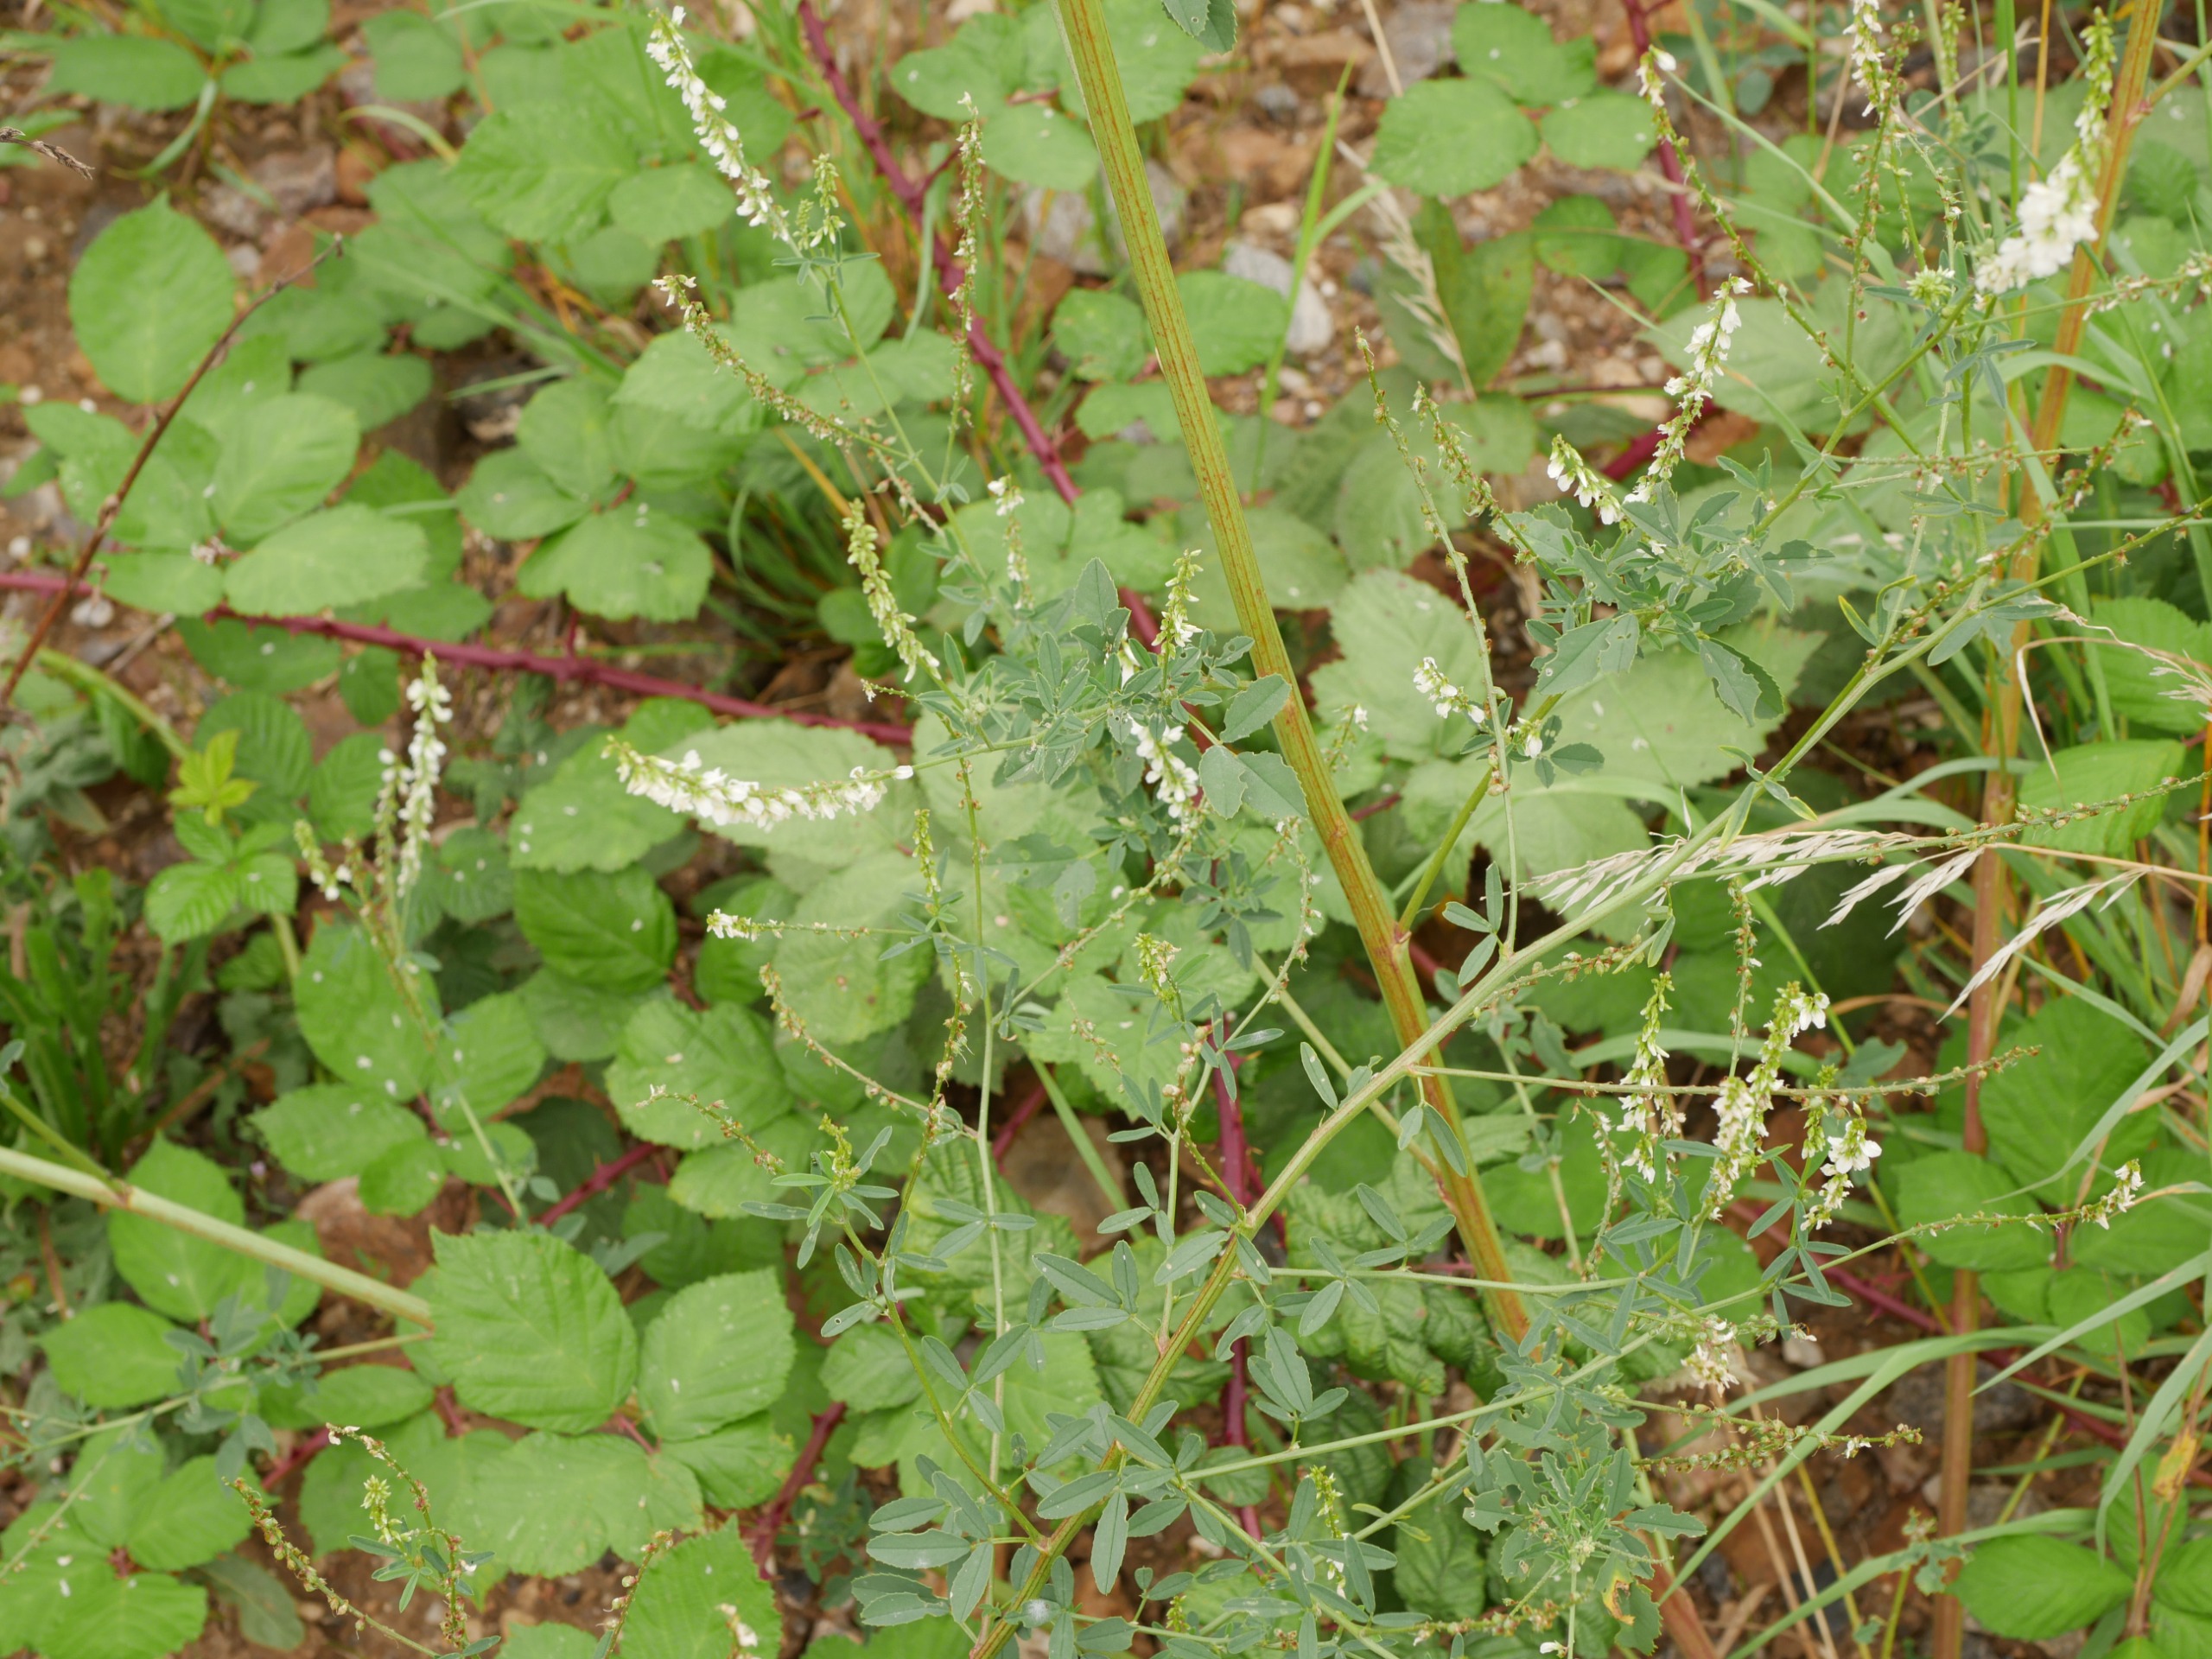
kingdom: Plantae
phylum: Tracheophyta
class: Magnoliopsida
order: Fabales
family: Fabaceae
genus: Melilotus
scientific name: Melilotus albus
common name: Hvid stenkløver
